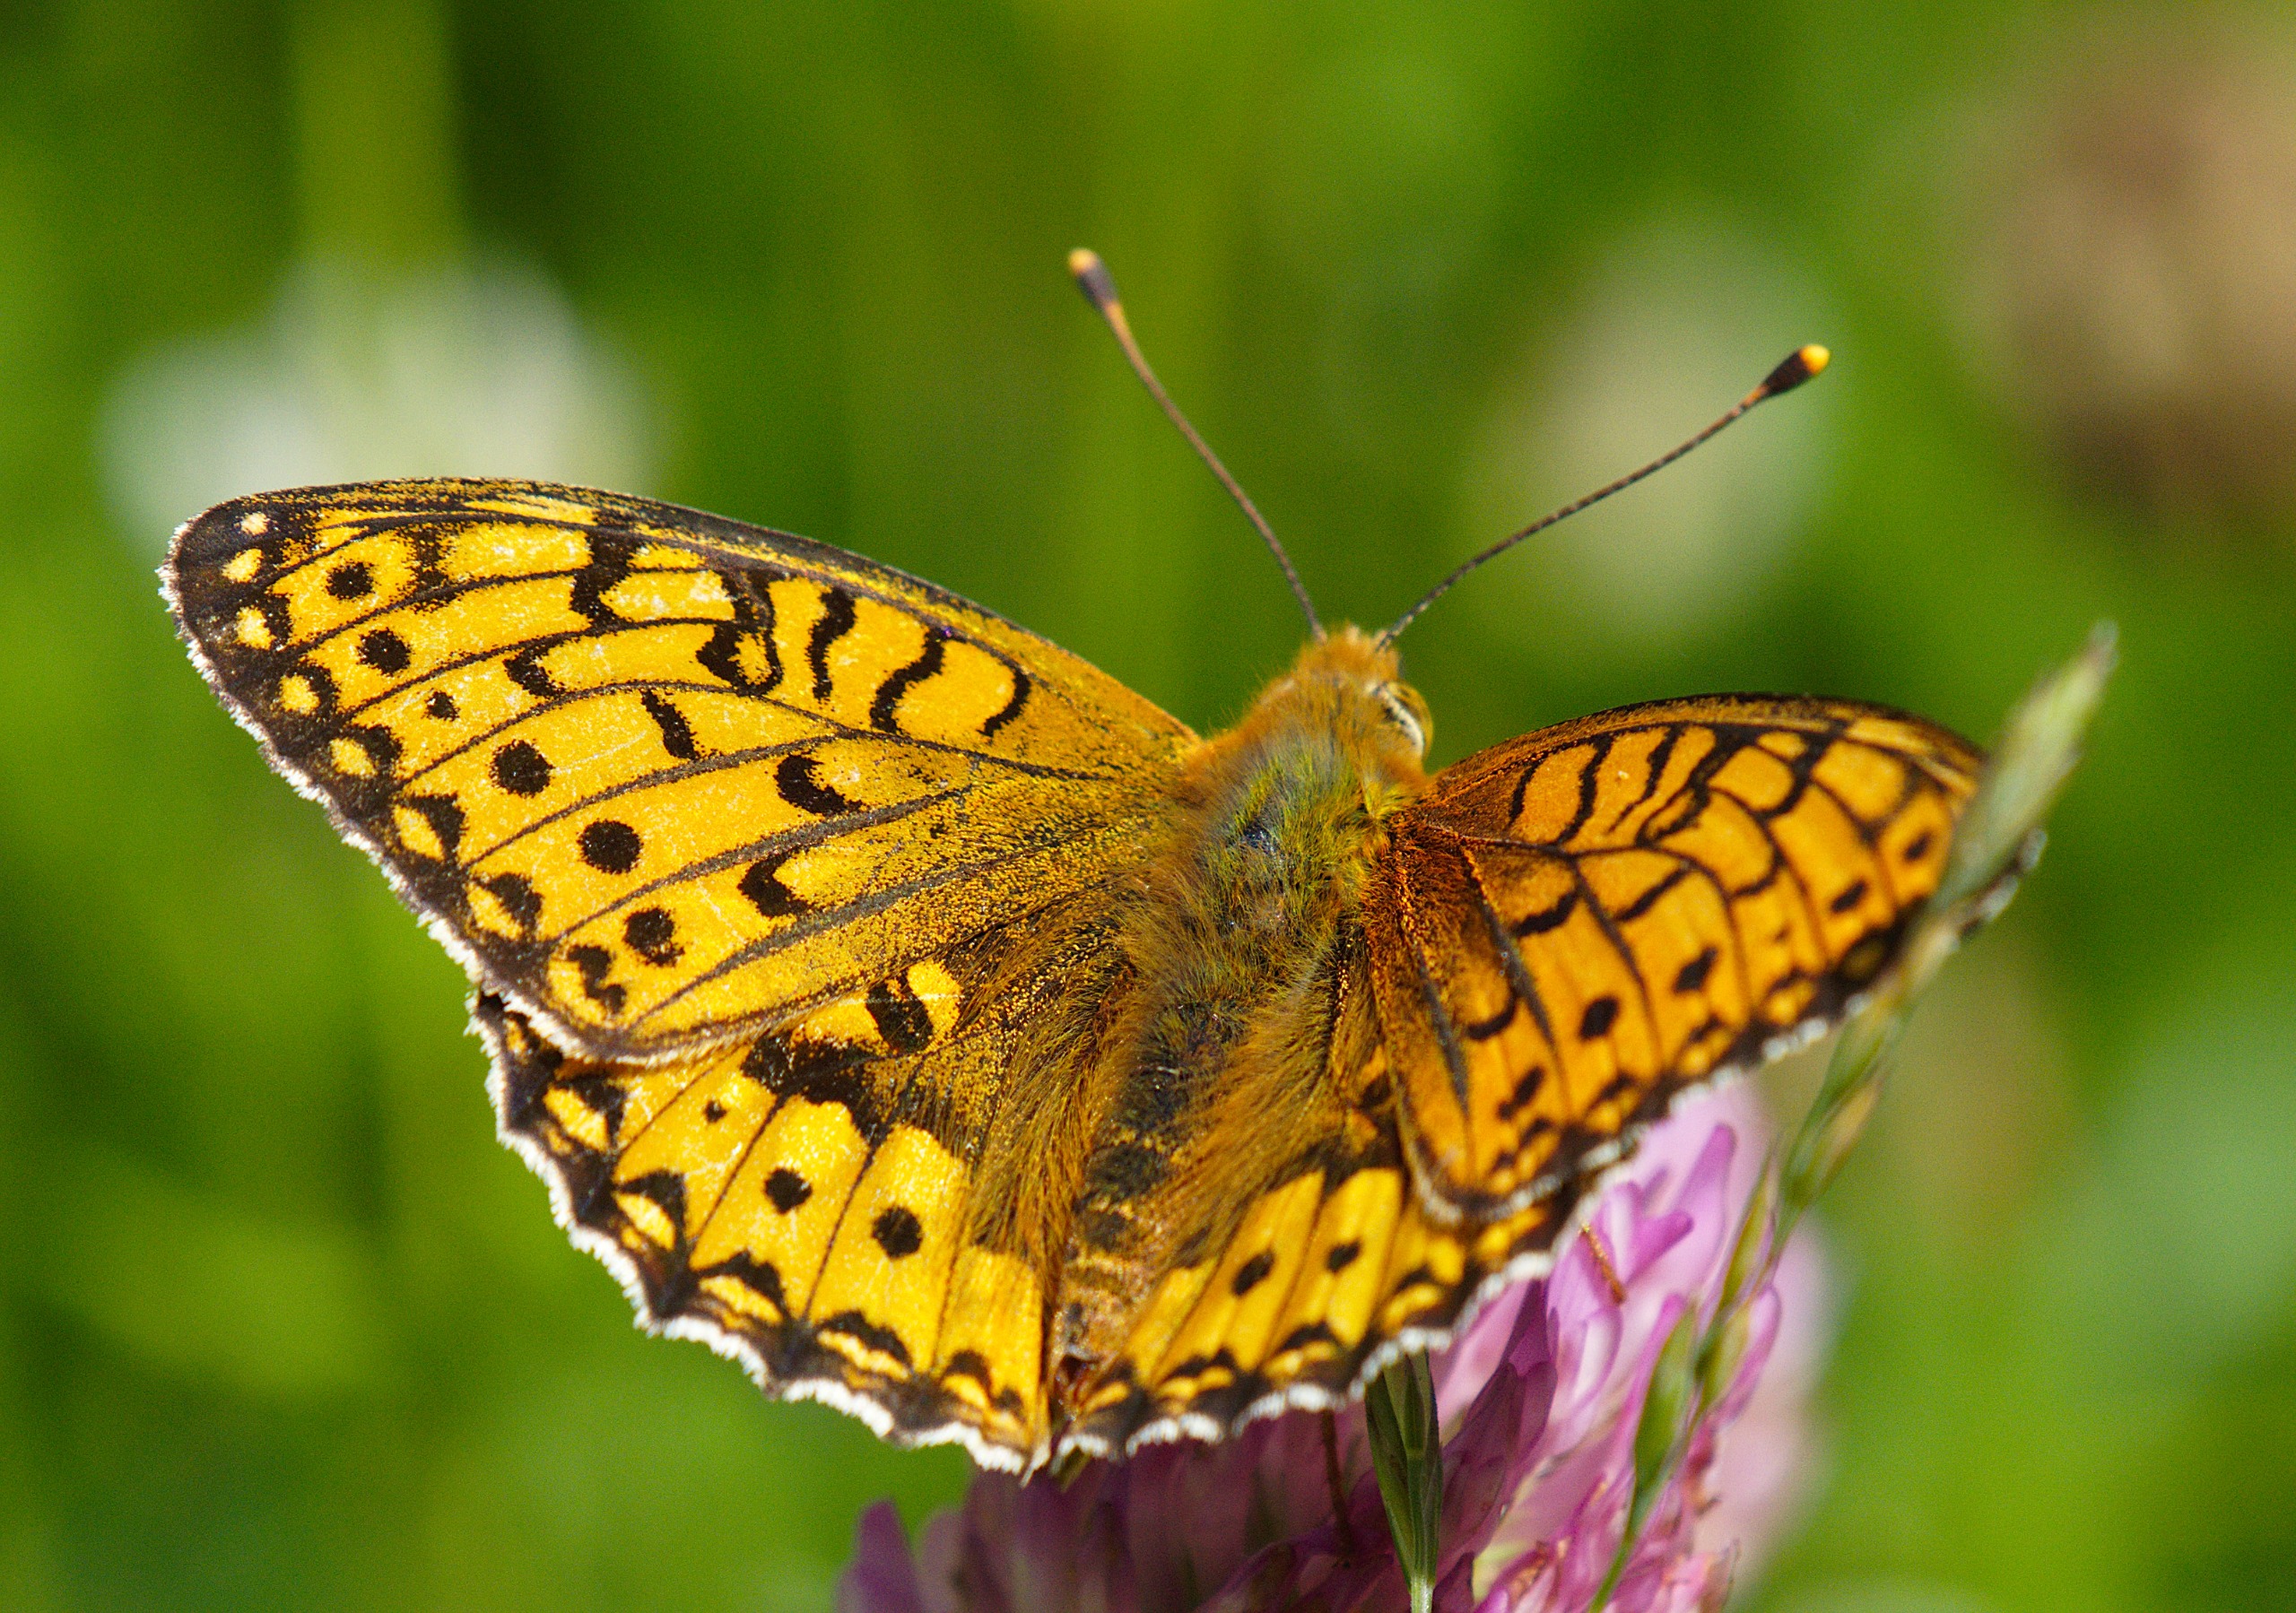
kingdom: Animalia
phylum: Arthropoda
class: Insecta
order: Lepidoptera
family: Nymphalidae
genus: Speyeria
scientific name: Speyeria aglaja
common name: Markperlemorsommerfugl
